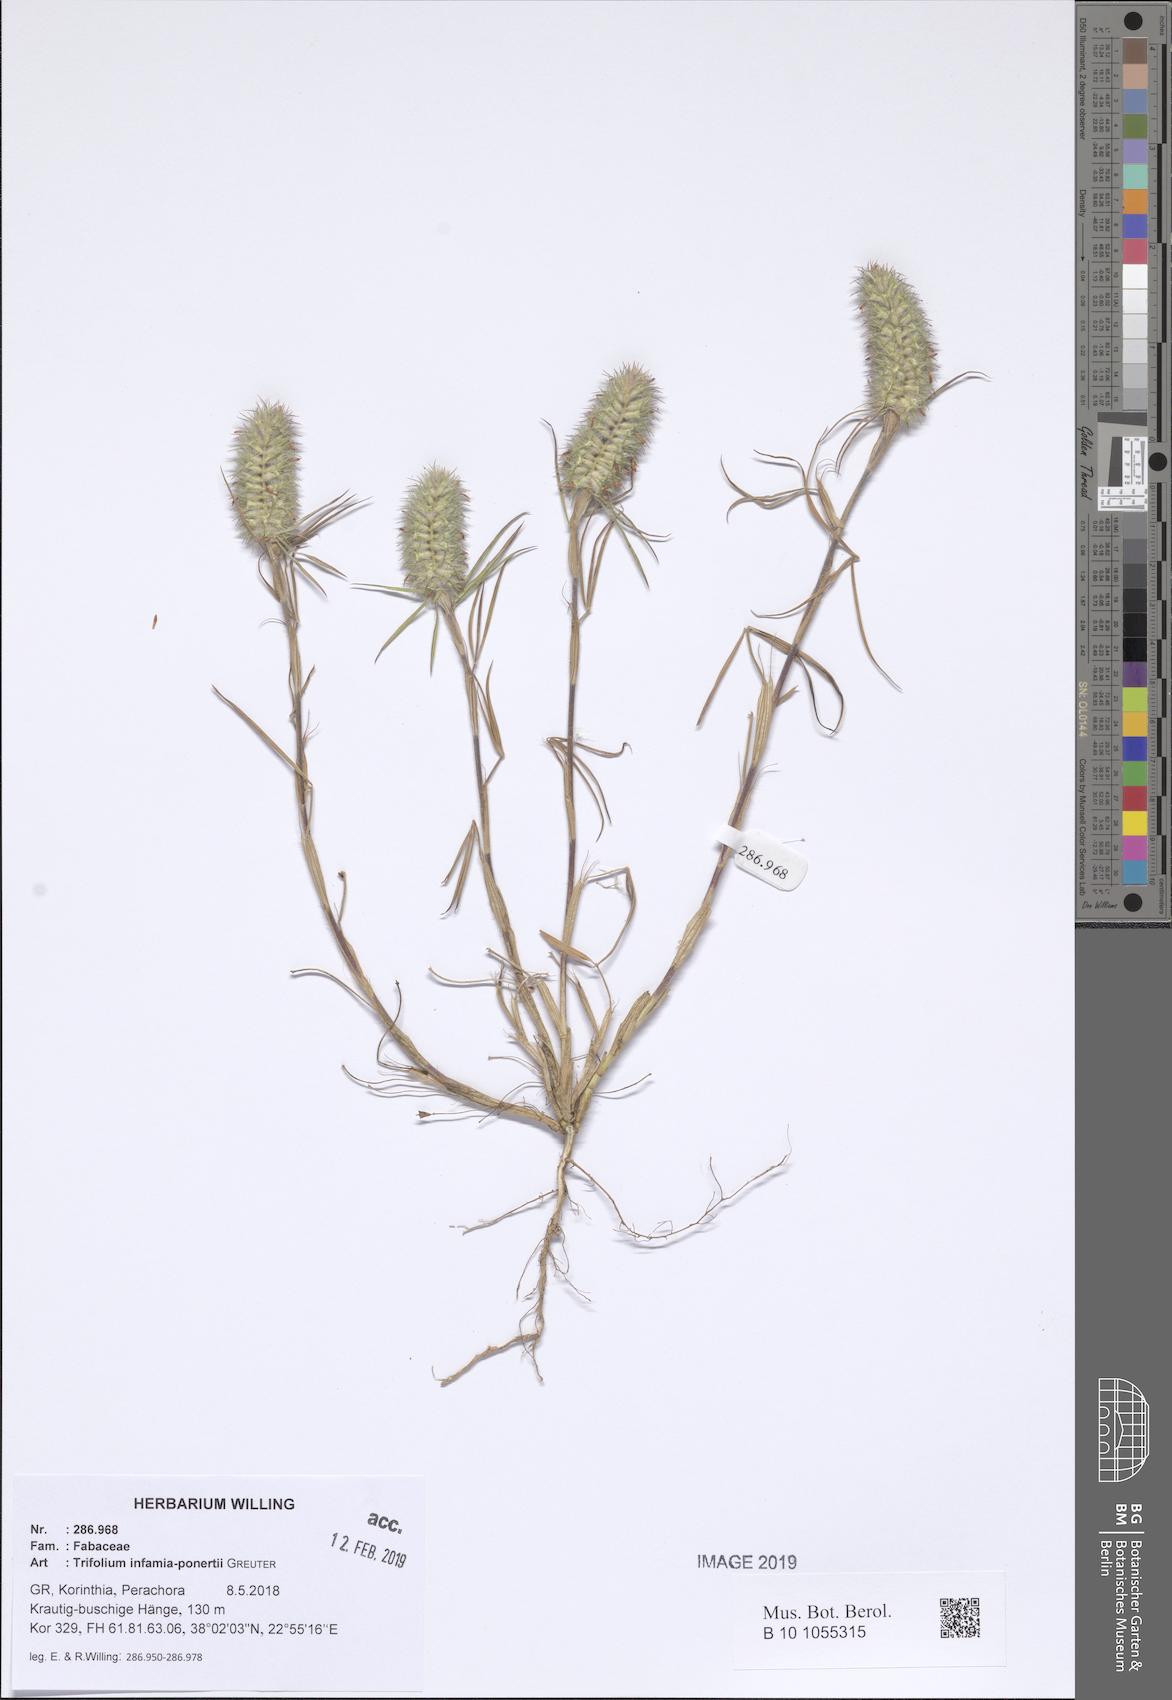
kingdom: Plantae
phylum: Tracheophyta
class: Magnoliopsida
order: Fabales
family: Fabaceae
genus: Trifolium
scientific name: Trifolium infamia-ponertii
